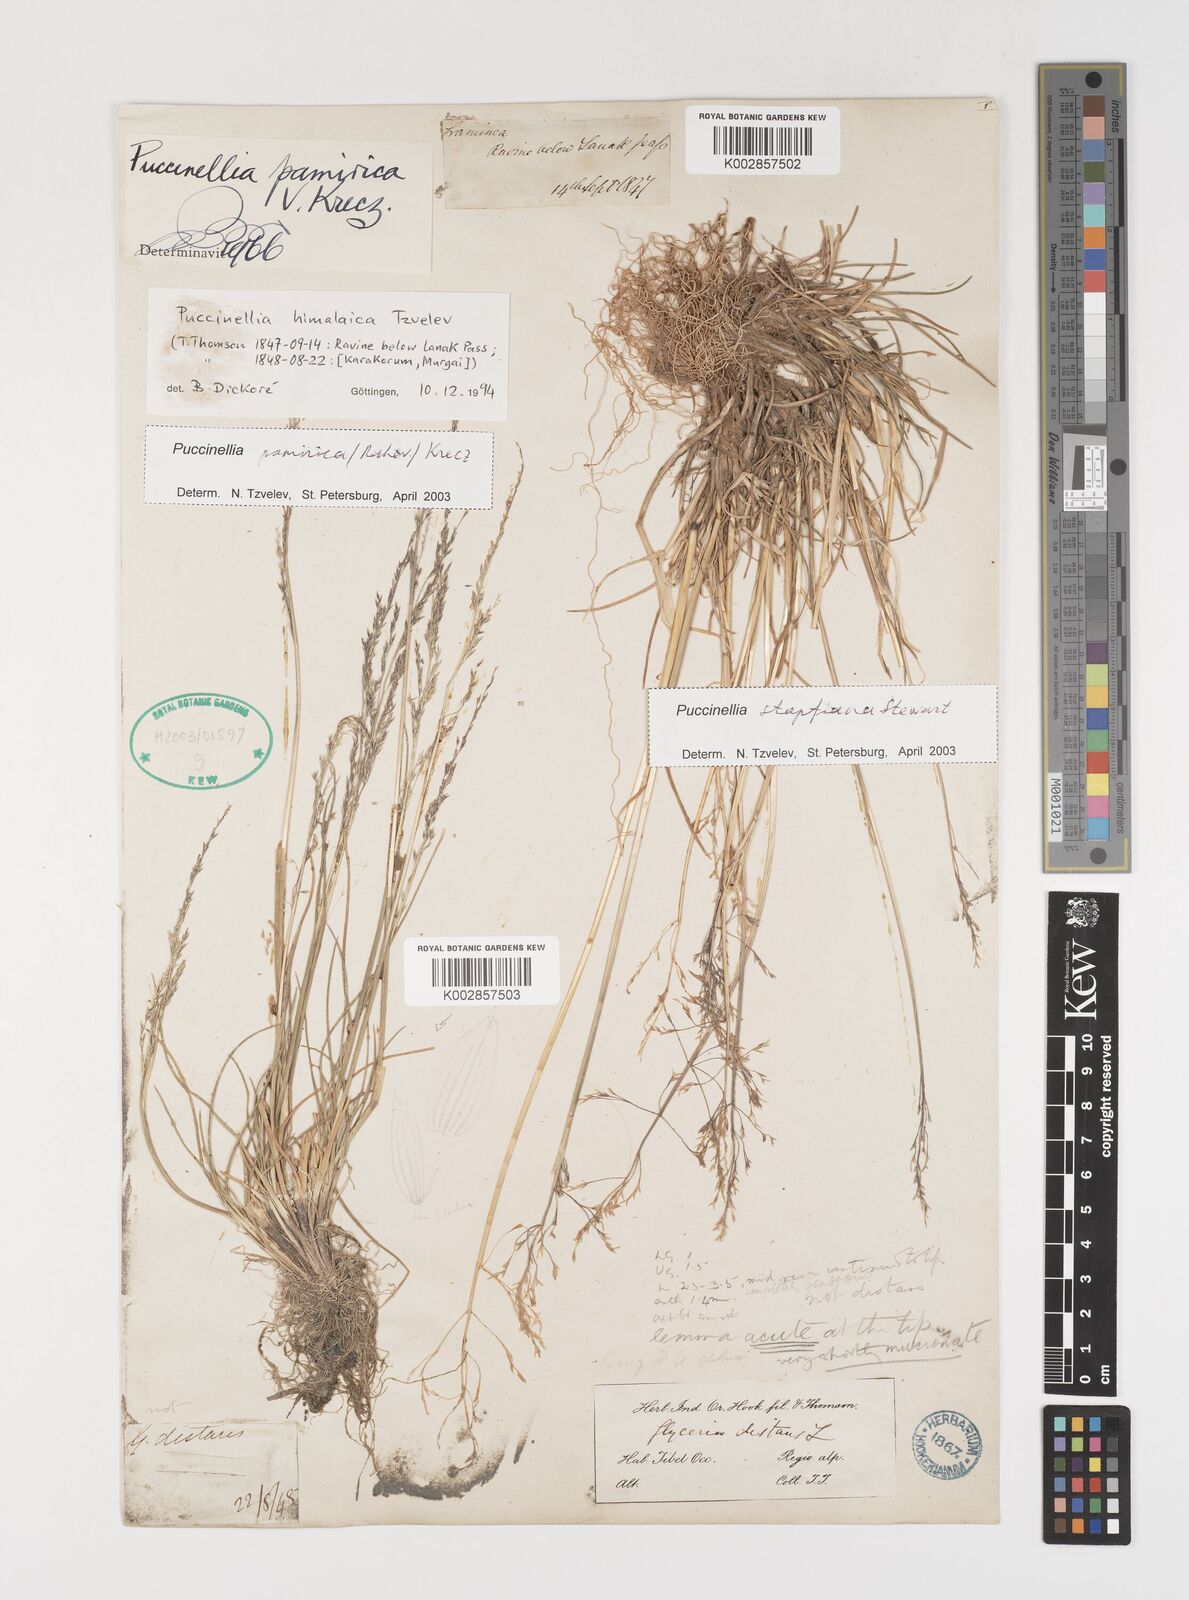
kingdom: Plantae
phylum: Tracheophyta
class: Liliopsida
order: Poales
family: Poaceae
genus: Puccinellia
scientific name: Puccinellia stapfiana
